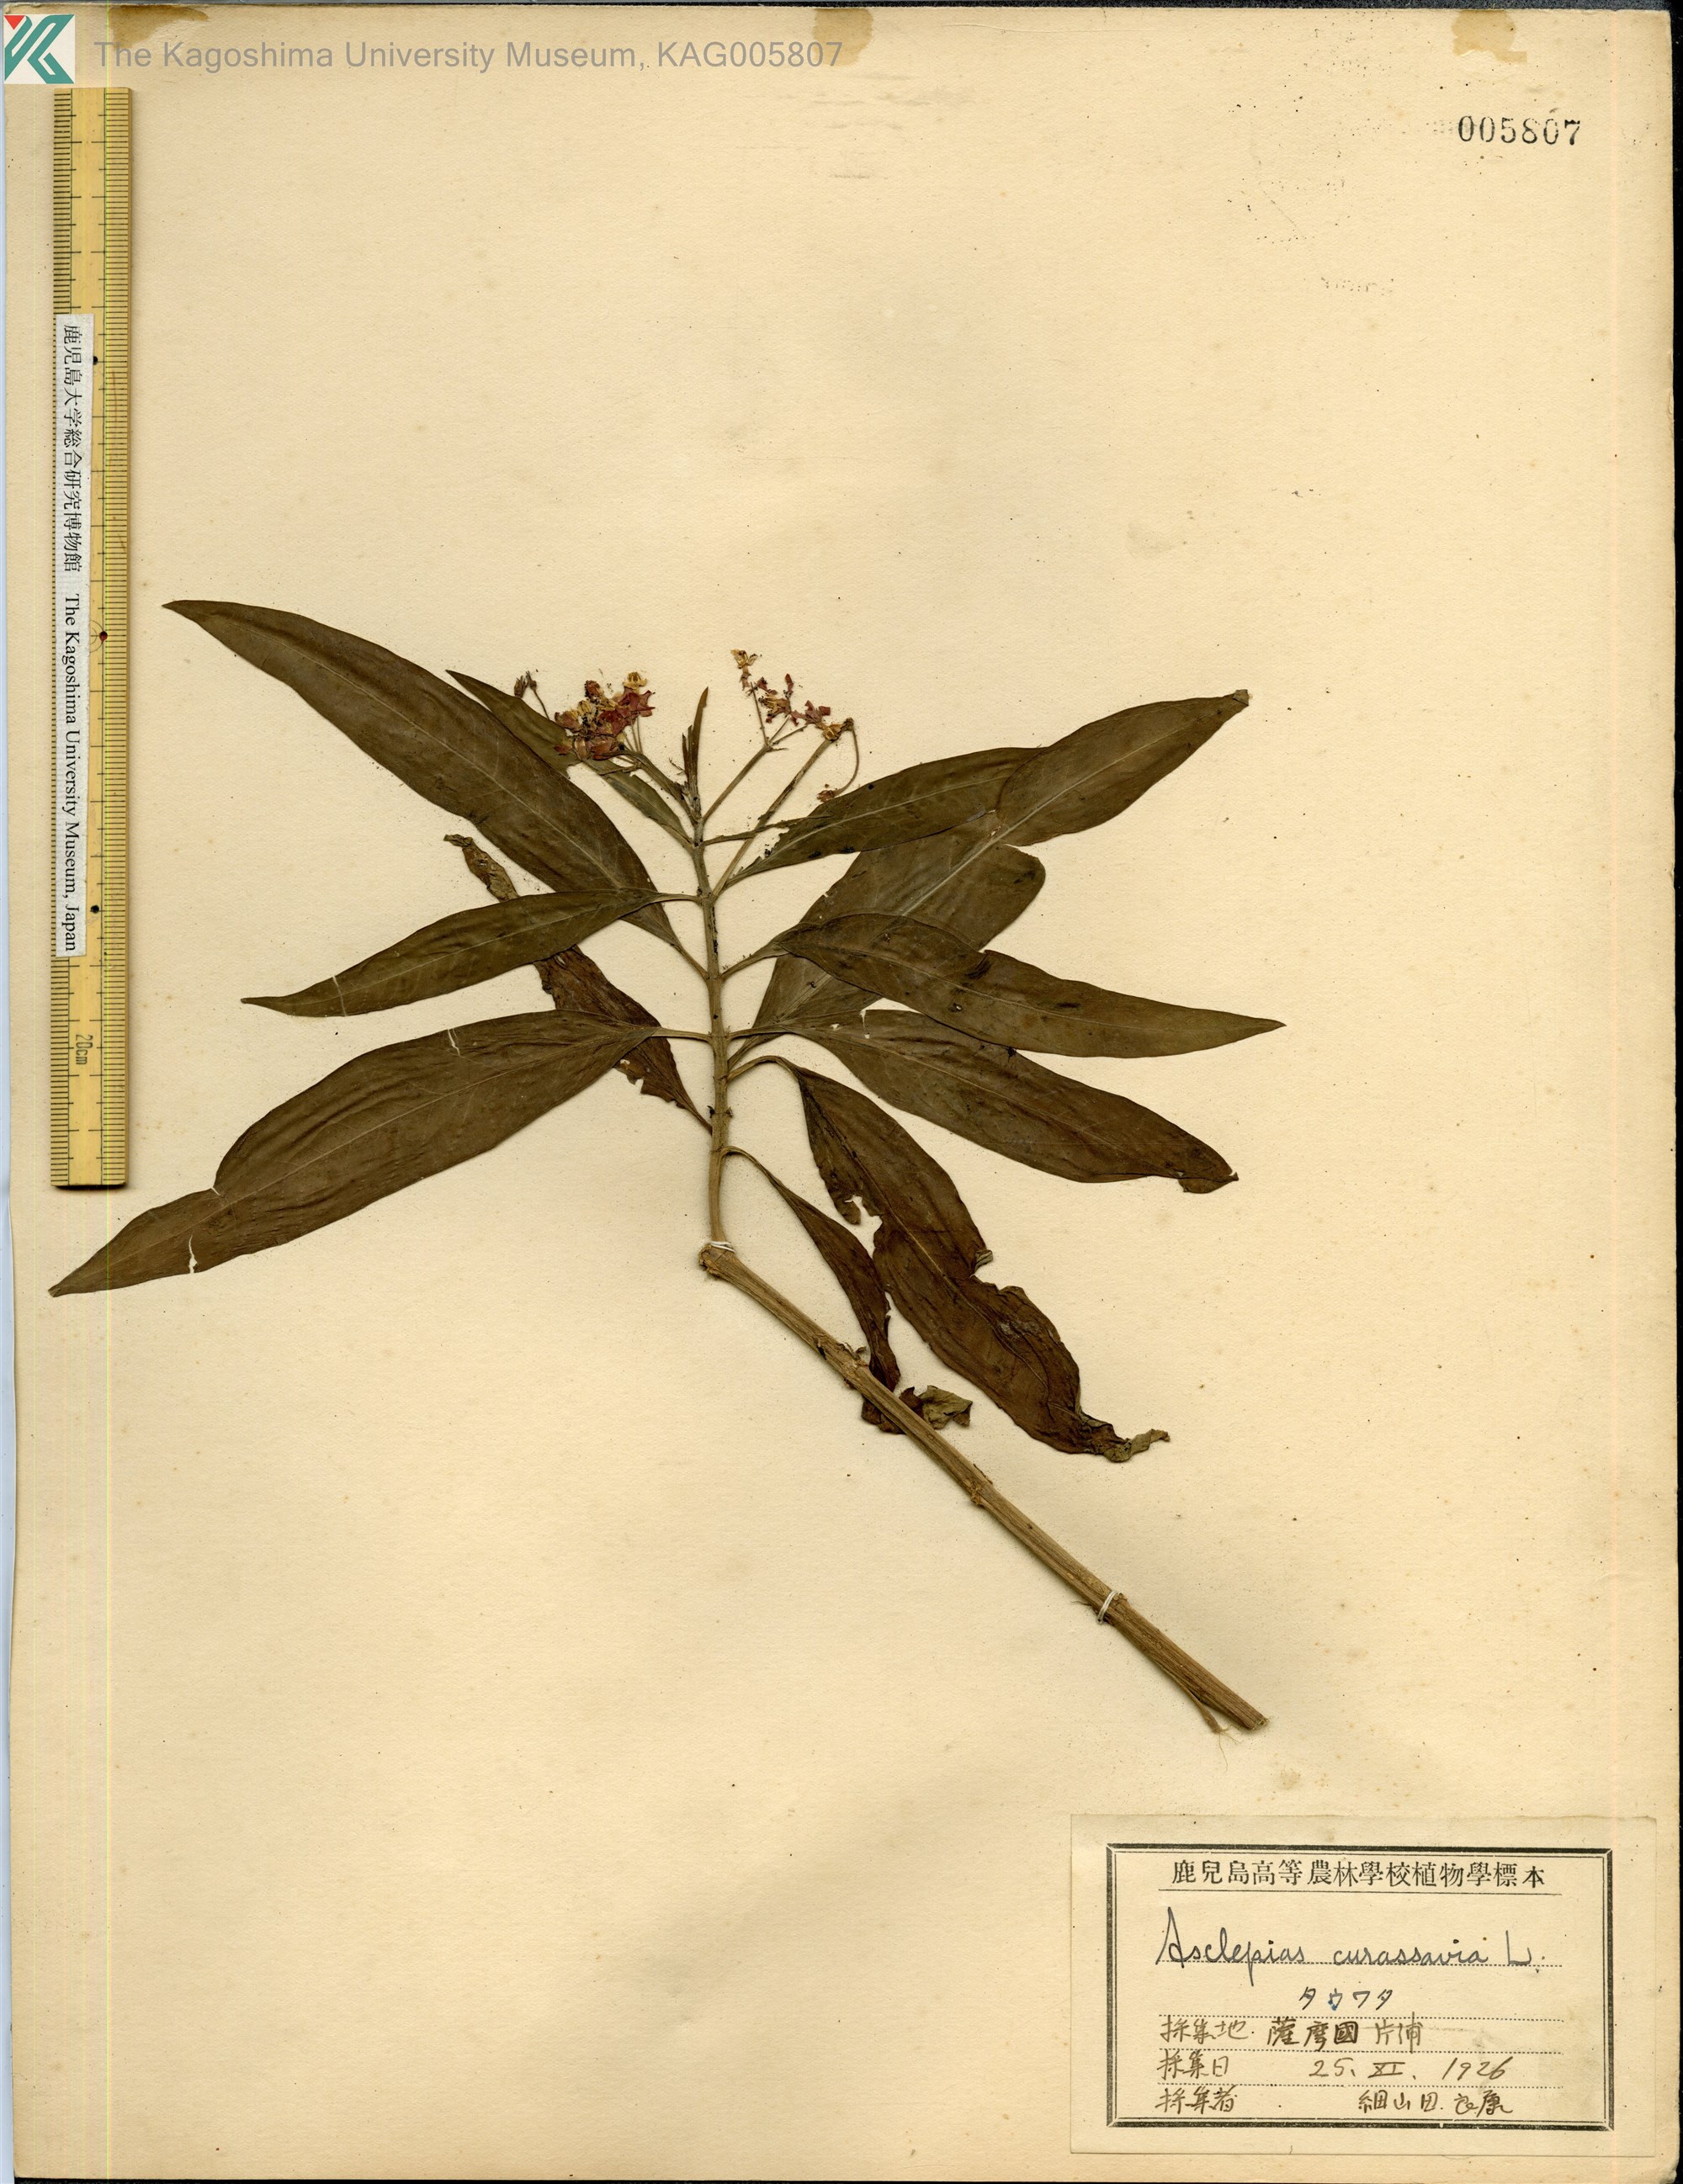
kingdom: Plantae
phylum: Tracheophyta
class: Magnoliopsida
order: Gentianales
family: Apocynaceae
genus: Asclepias
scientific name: Asclepias
